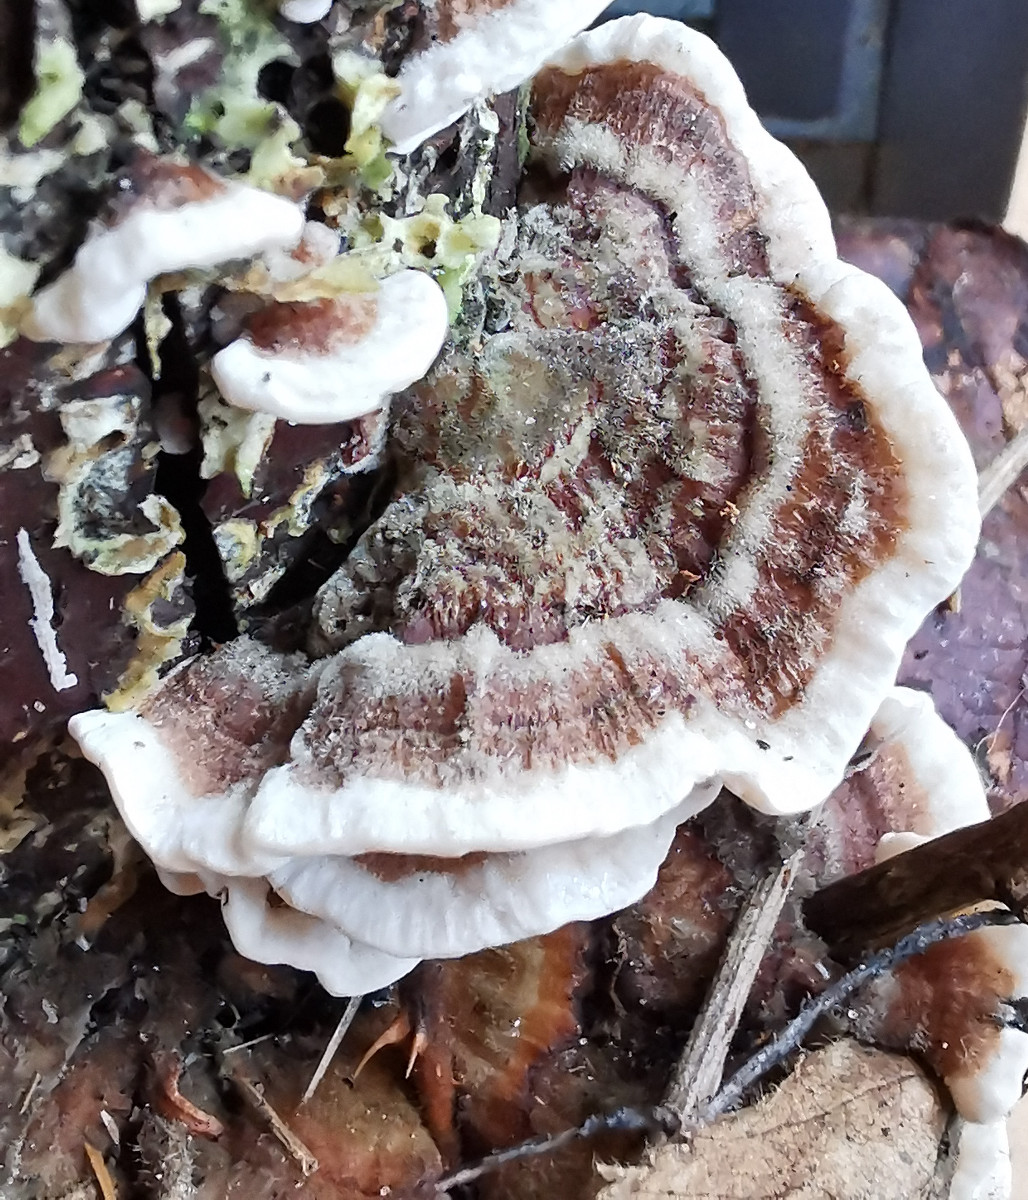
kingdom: Fungi
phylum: Basidiomycota
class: Agaricomycetes
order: Polyporales
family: Polyporaceae
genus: Trametes
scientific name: Trametes versicolor
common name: broget læderporesvamp
